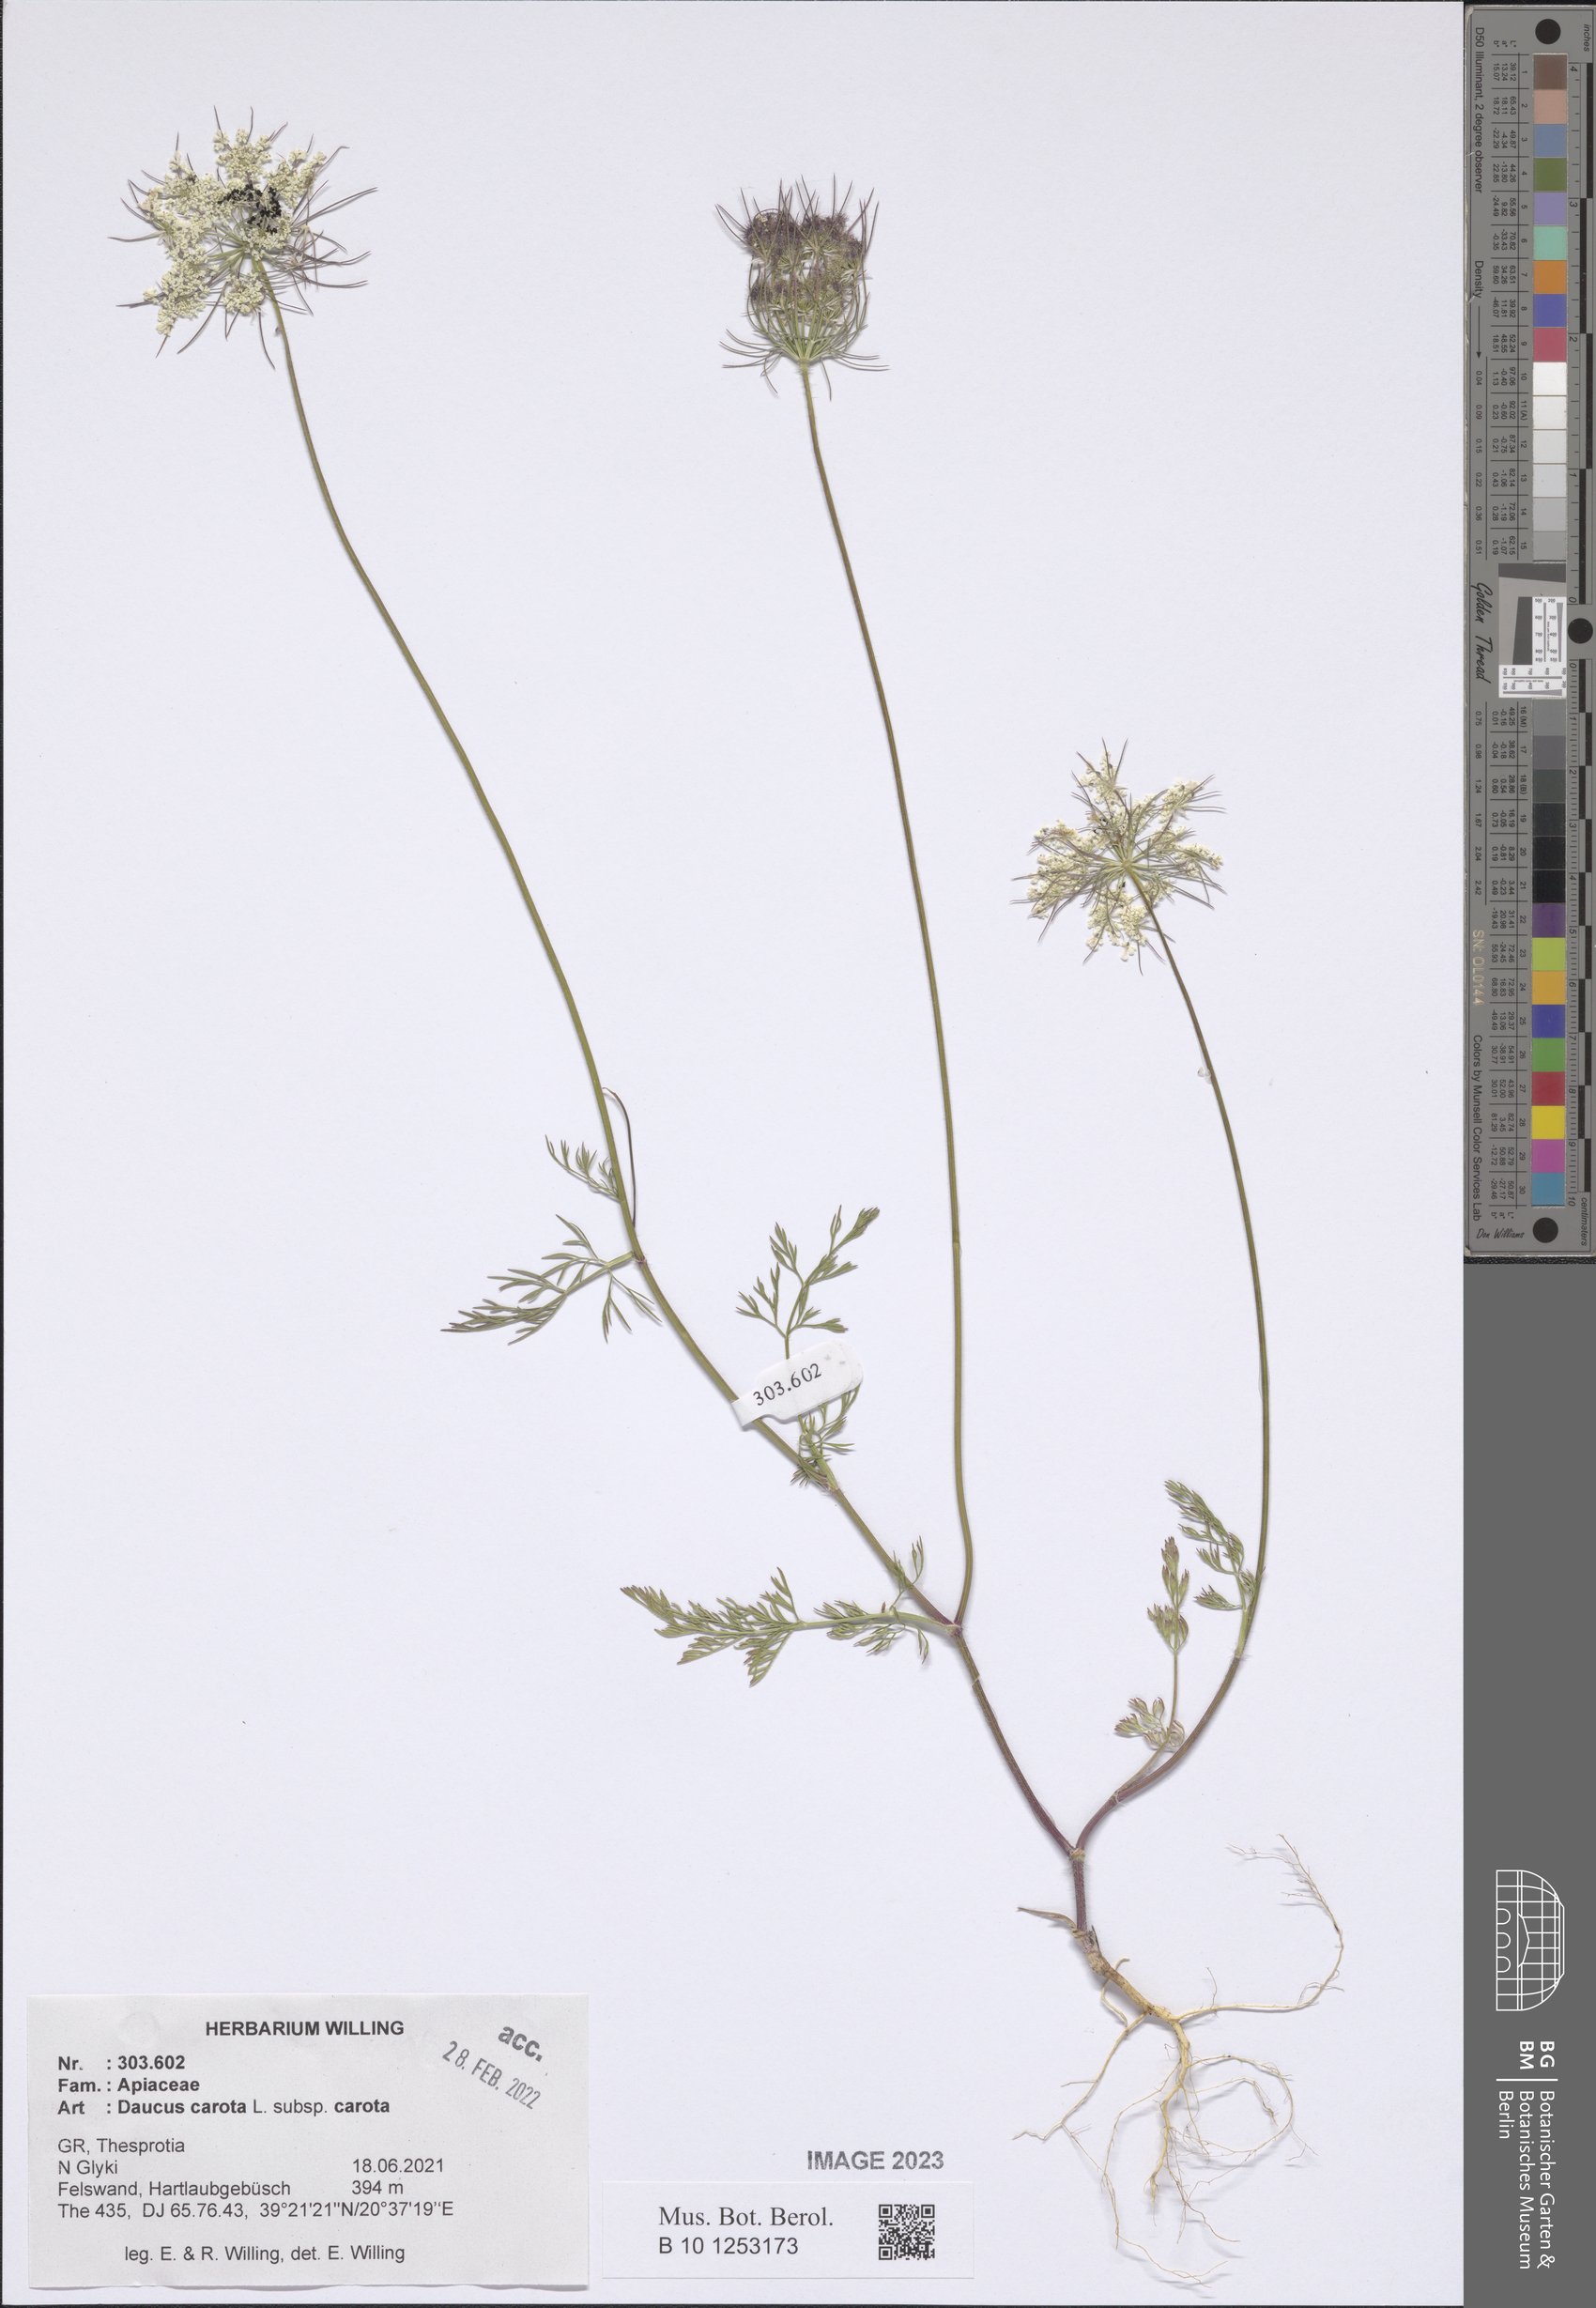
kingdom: Plantae
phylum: Tracheophyta
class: Magnoliopsida
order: Apiales
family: Apiaceae
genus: Daucus
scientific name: Daucus carota
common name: Wild carrot
